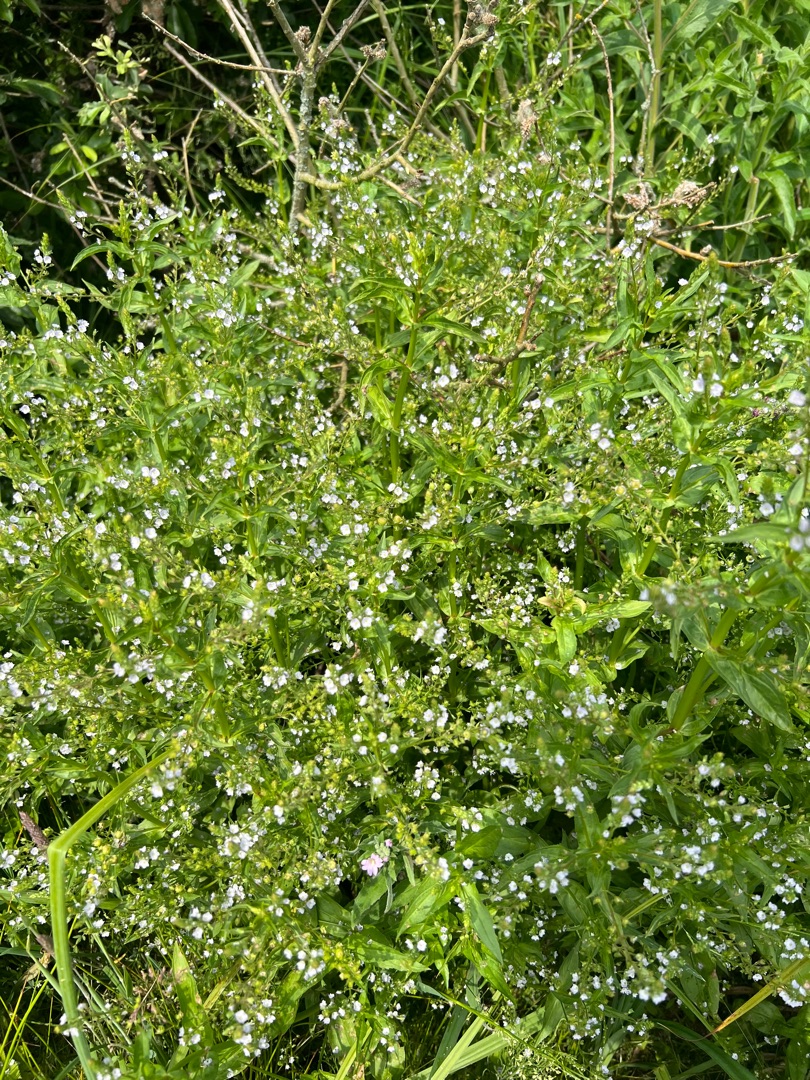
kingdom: Plantae
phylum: Tracheophyta
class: Magnoliopsida
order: Lamiales
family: Plantaginaceae
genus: Veronica
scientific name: Veronica anagallis-aquatica
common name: Lancetbladet ærenpris
